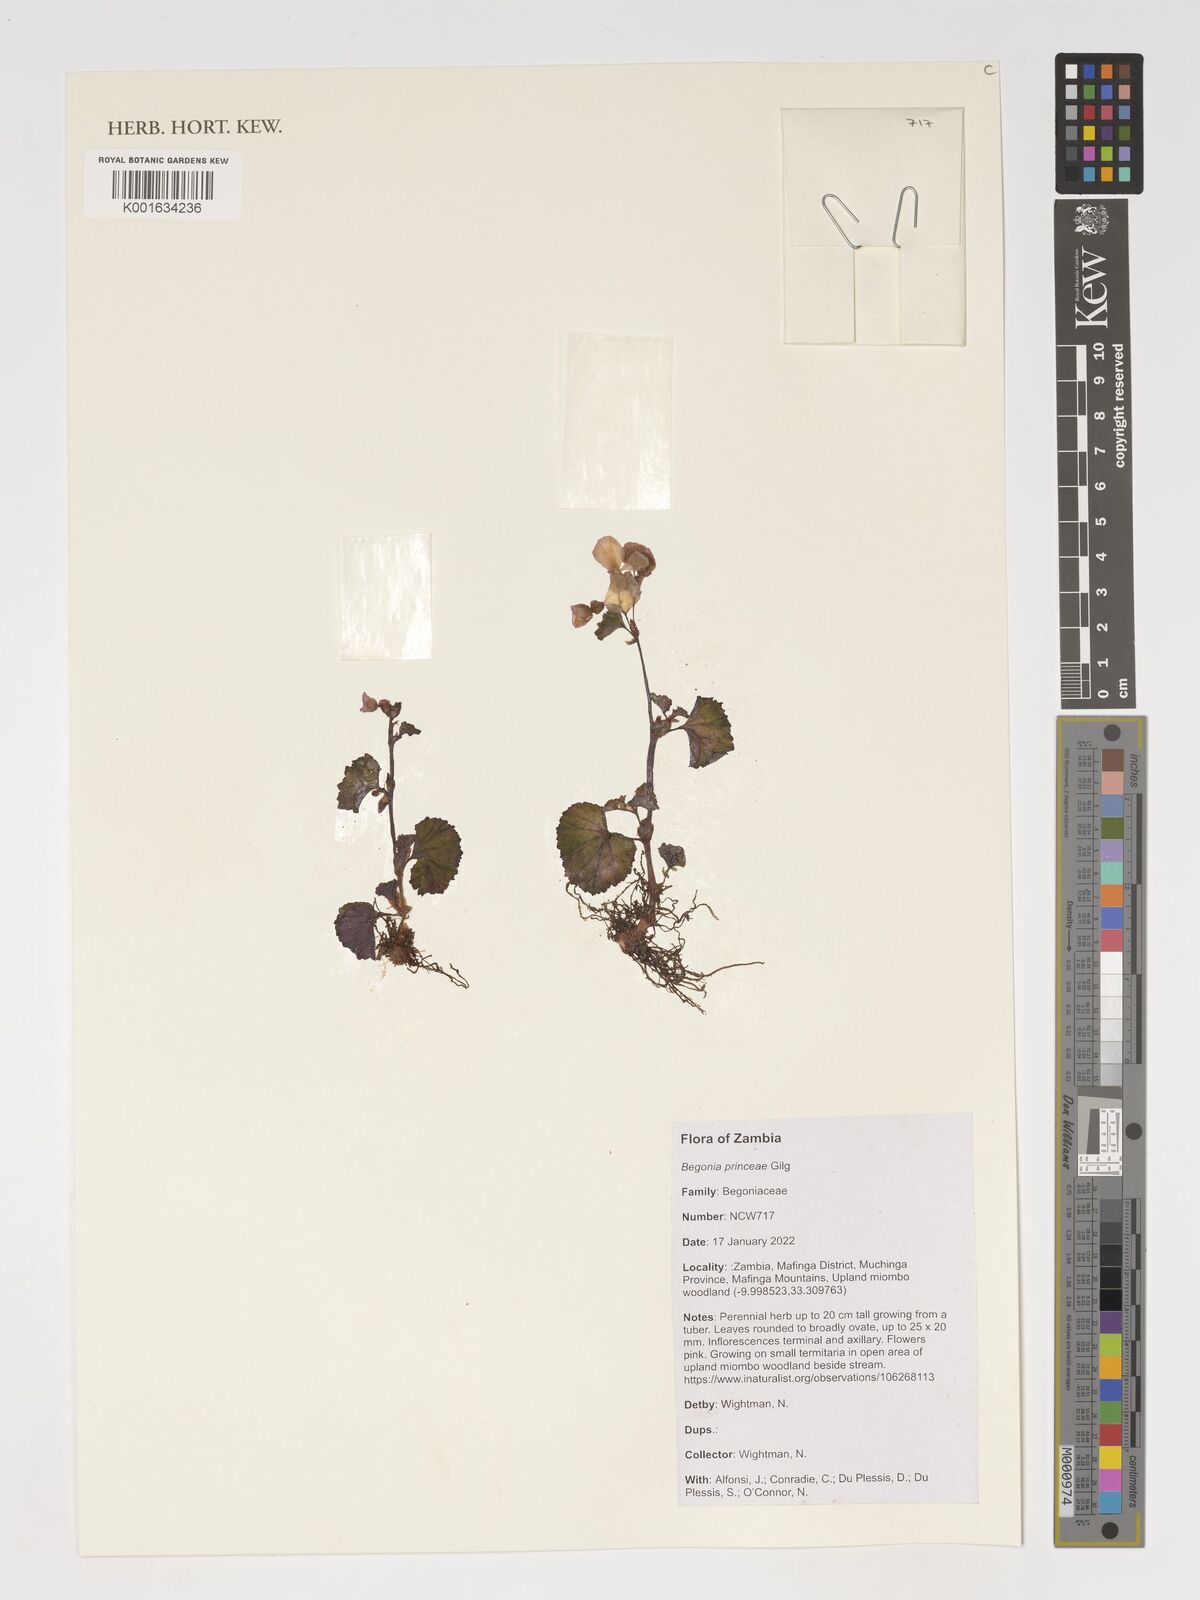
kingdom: Plantae
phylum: Tracheophyta
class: Magnoliopsida
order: Cucurbitales
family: Begoniaceae
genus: Begonia
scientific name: Begonia princeae
